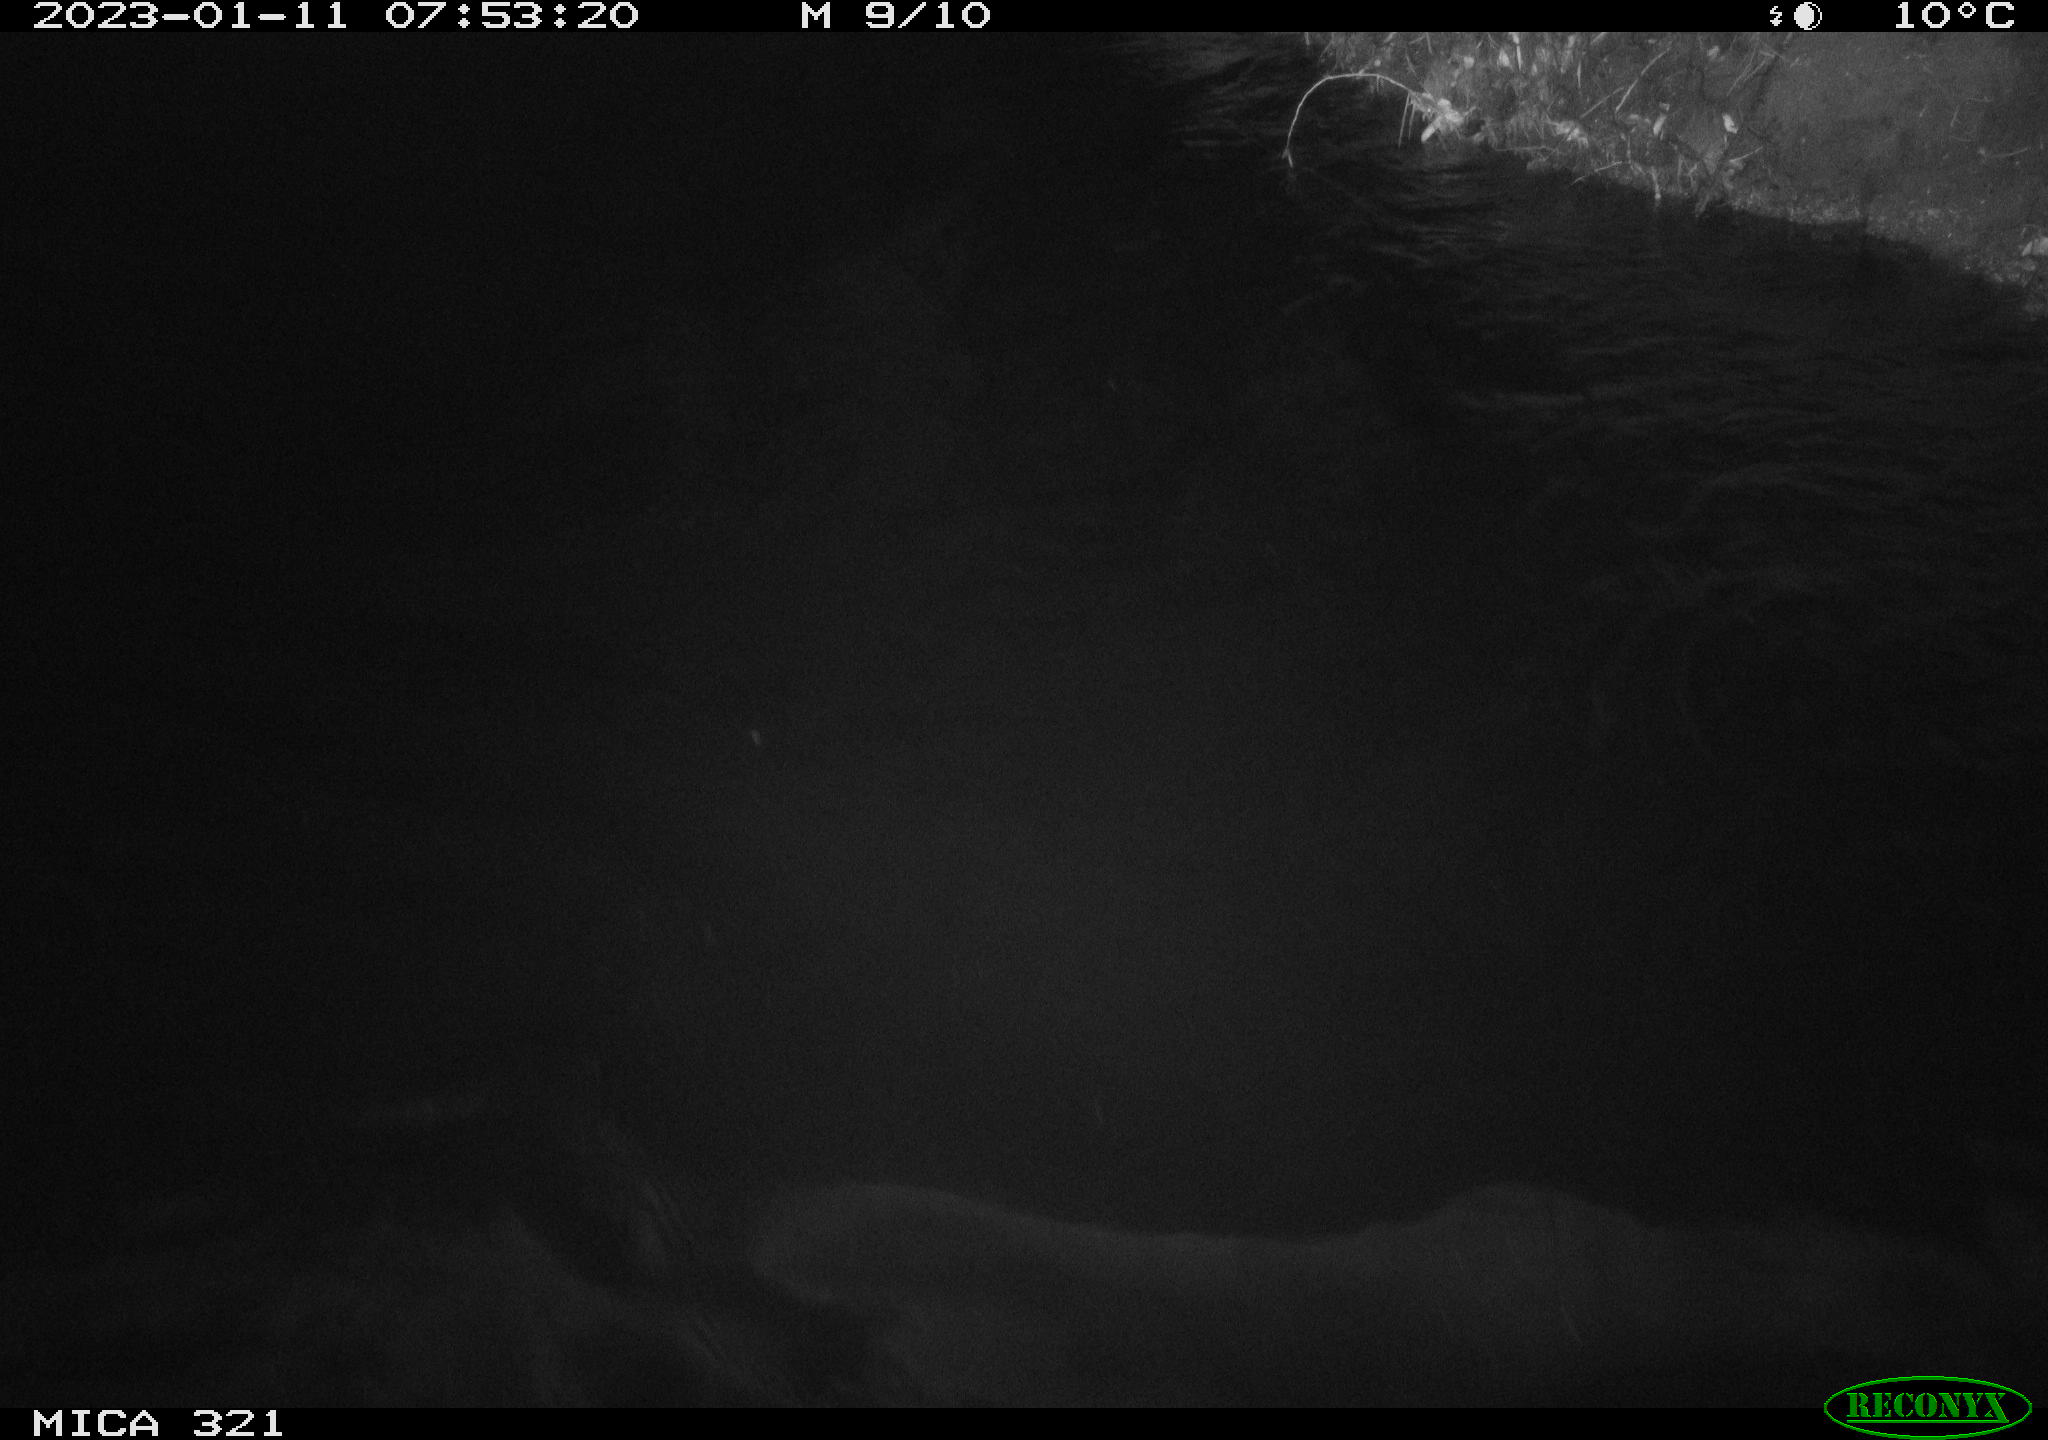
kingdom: Animalia
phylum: Chordata
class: Aves
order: Anseriformes
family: Anatidae
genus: Anas
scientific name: Anas
